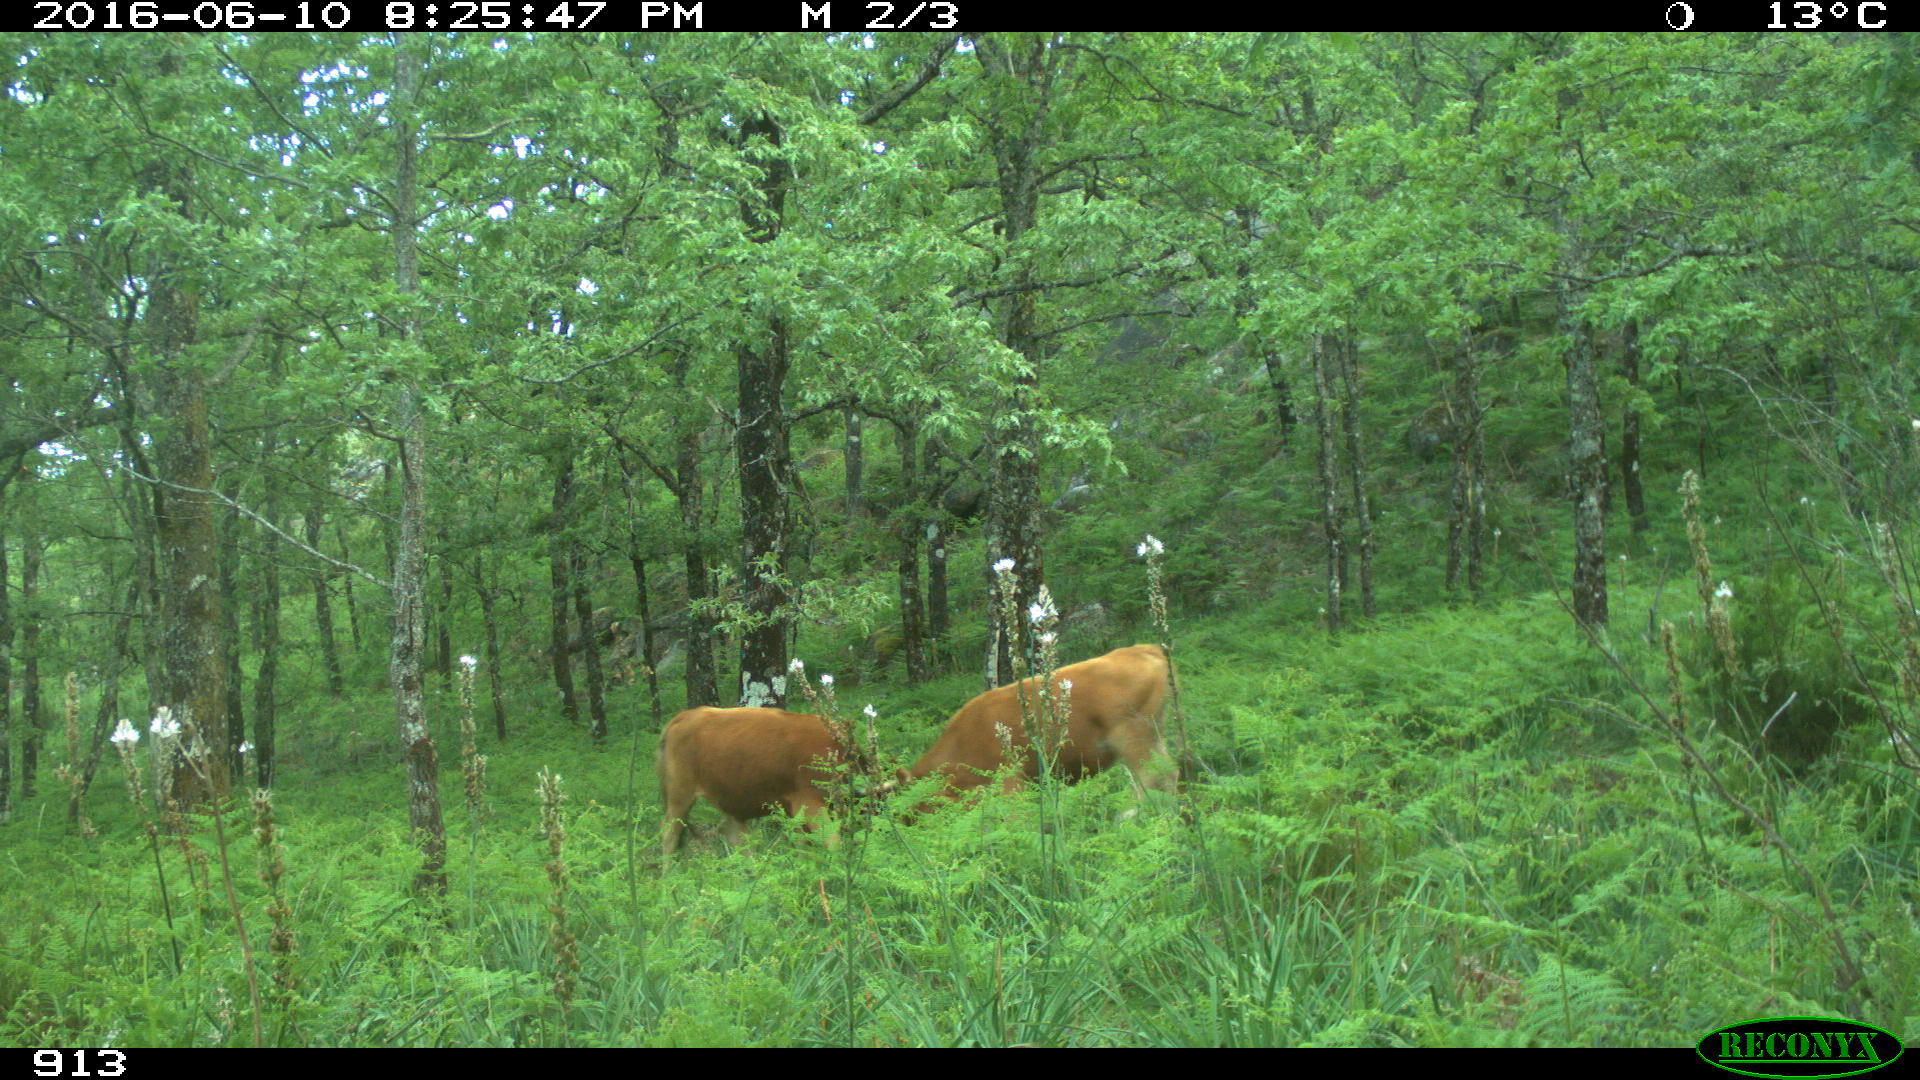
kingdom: Animalia
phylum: Chordata
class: Mammalia
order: Artiodactyla
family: Bovidae
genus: Bos
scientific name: Bos taurus
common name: Domesticated cattle
